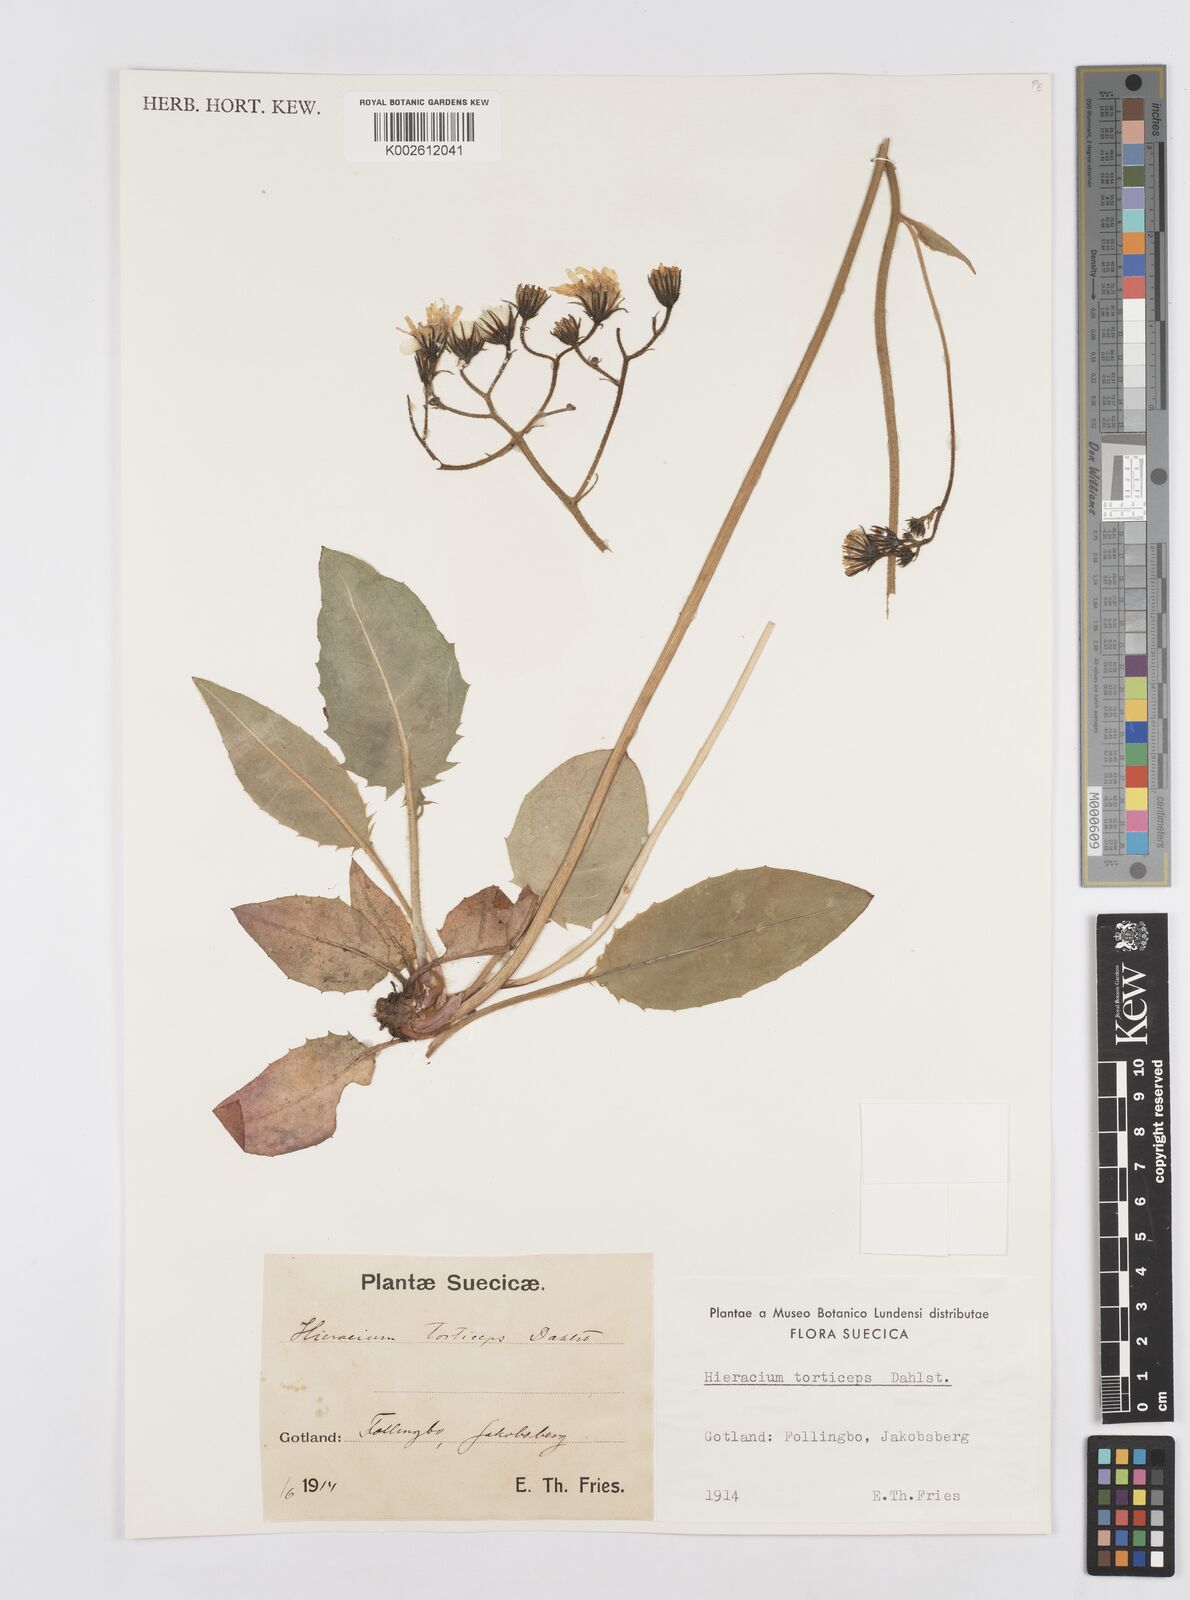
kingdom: Plantae
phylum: Tracheophyta
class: Magnoliopsida
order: Asterales
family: Asteraceae
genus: Hieracium
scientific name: Hieracium murorum
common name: Wall hawkweed
